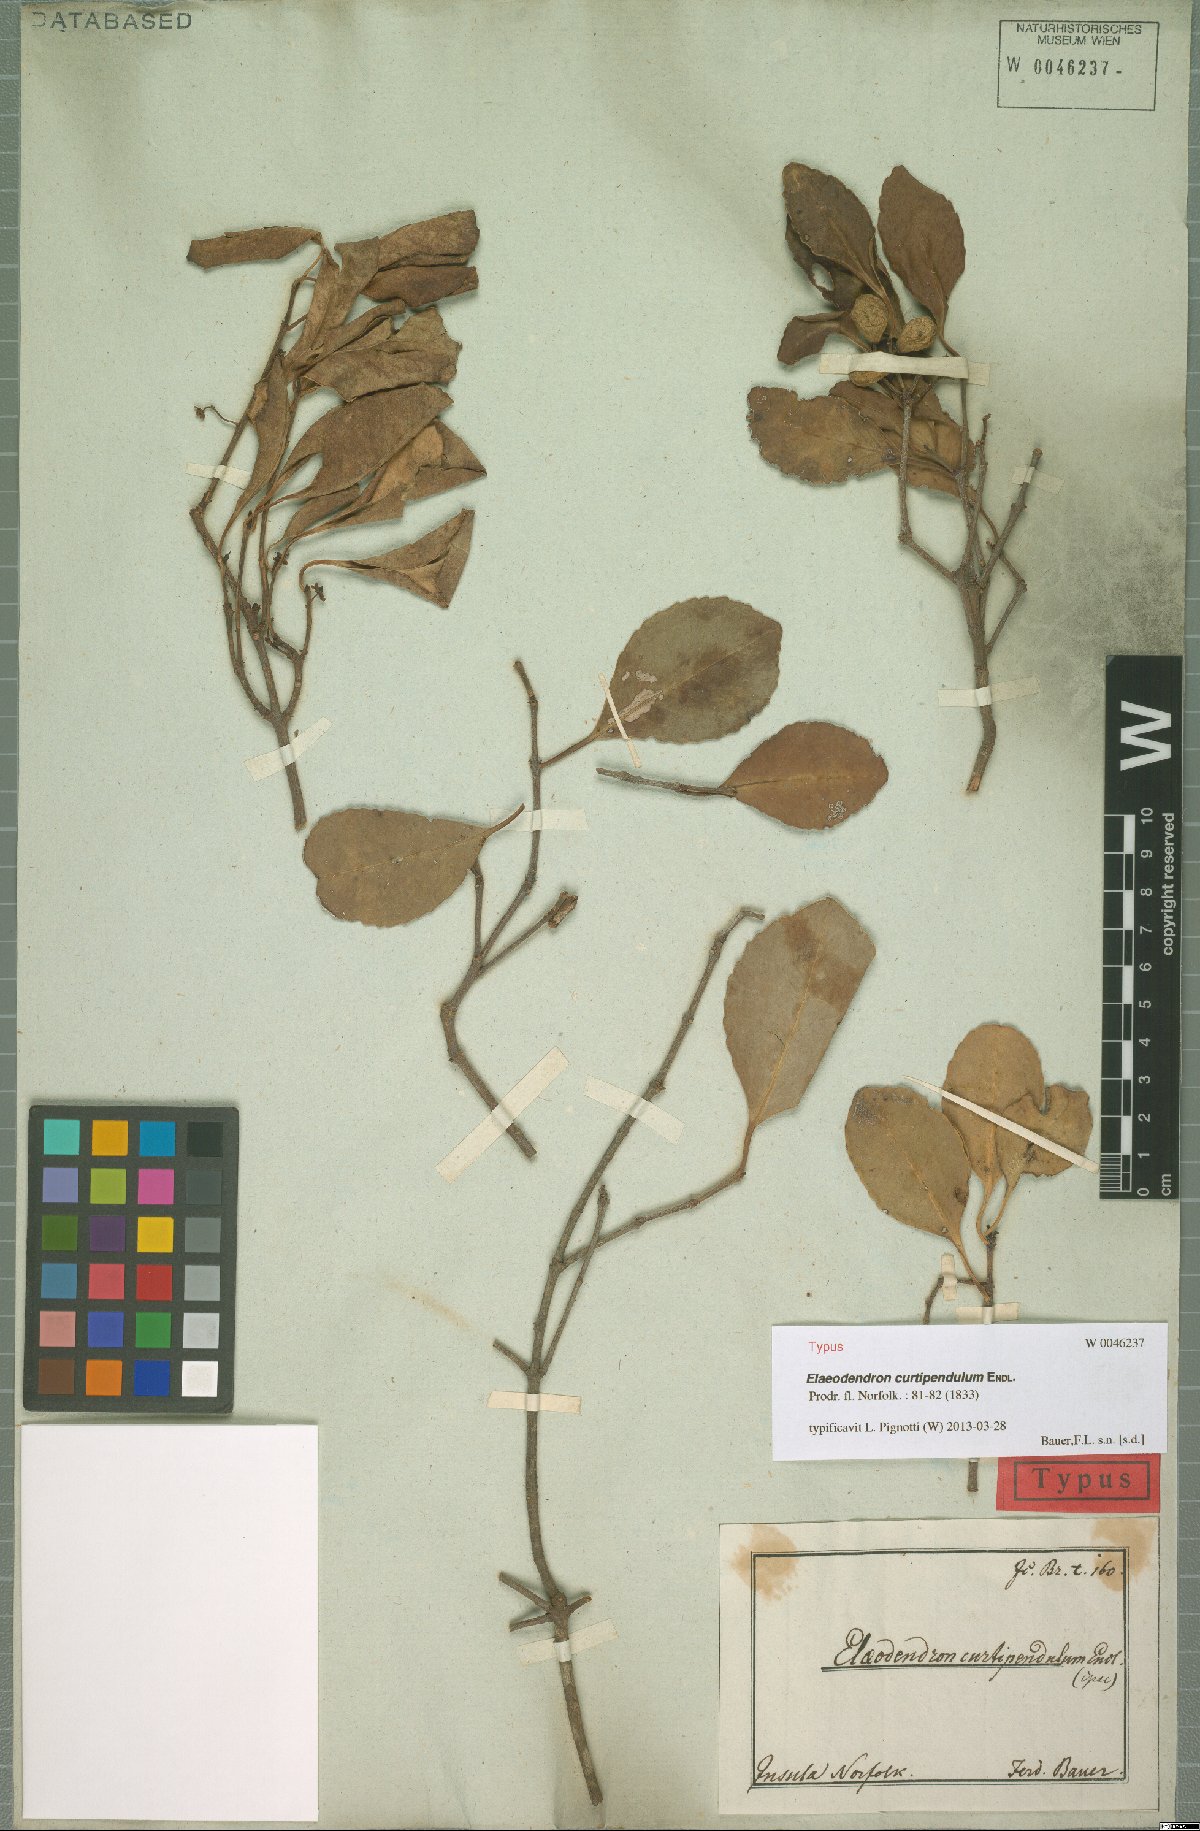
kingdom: Plantae
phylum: Tracheophyta
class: Magnoliopsida
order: Celastrales
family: Celastraceae
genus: Elaeodendron
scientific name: Elaeodendron curtipendulum
